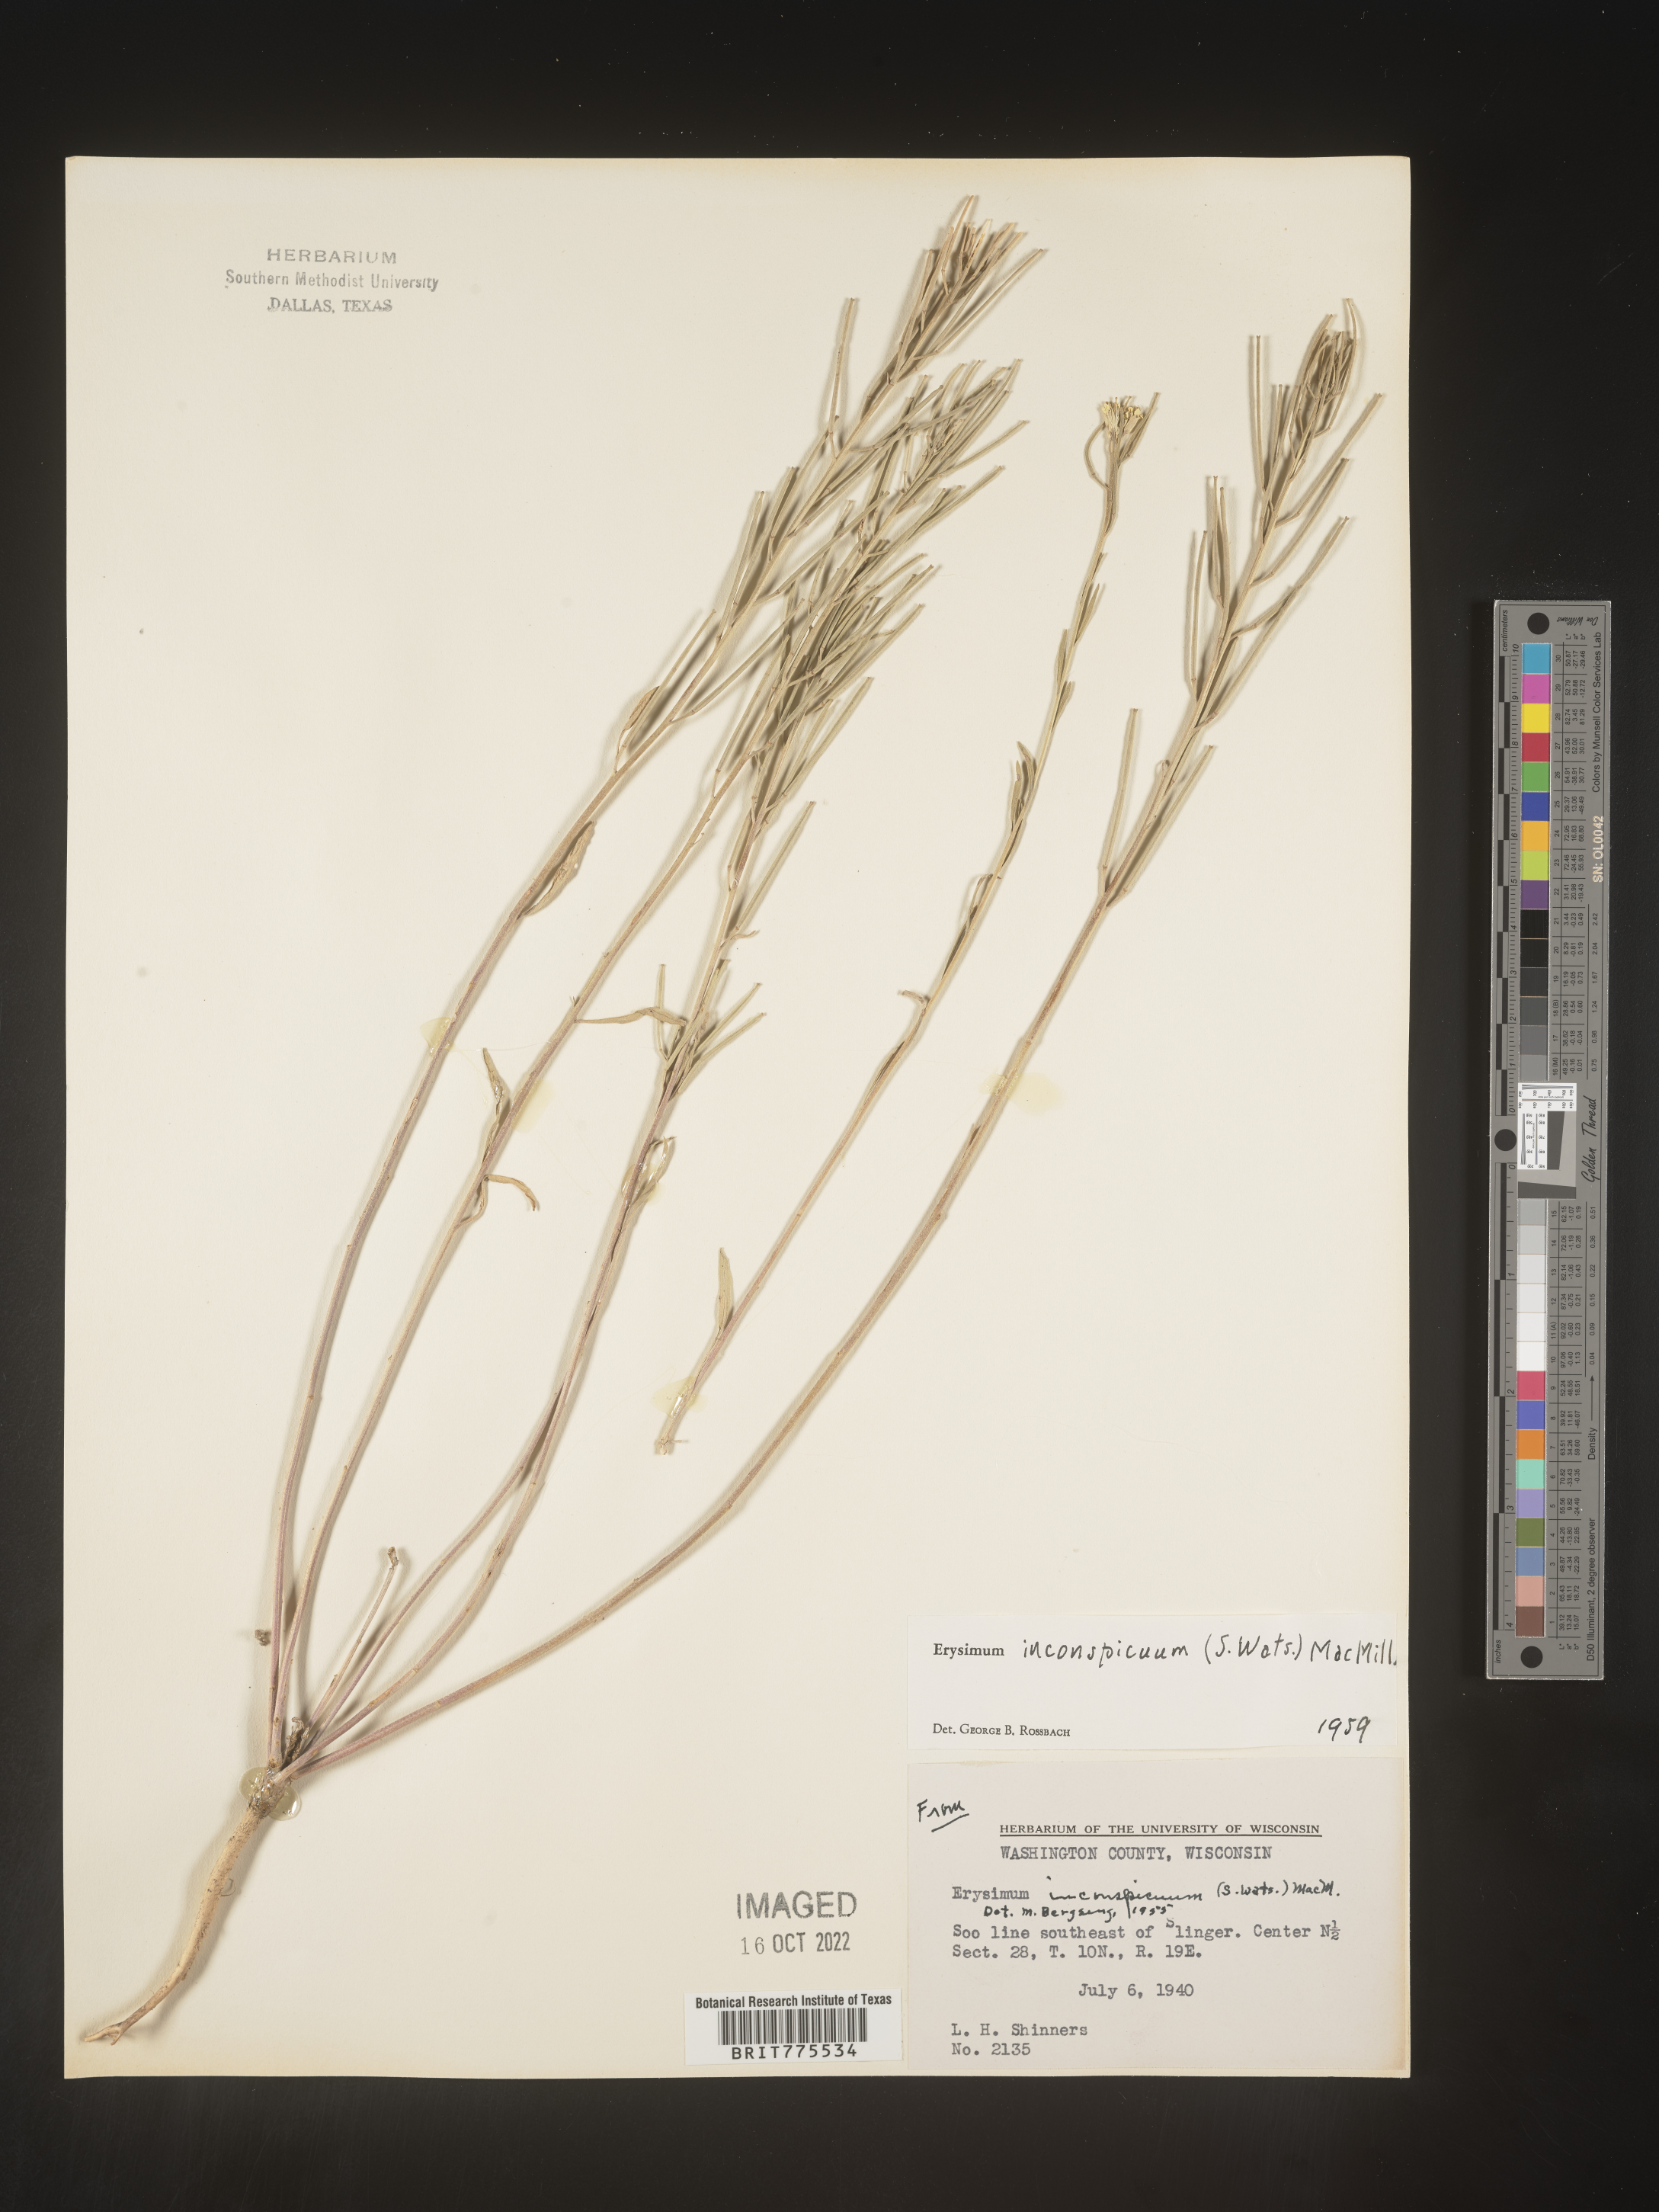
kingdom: Plantae
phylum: Tracheophyta
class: Magnoliopsida
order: Brassicales
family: Brassicaceae
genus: Erysimum
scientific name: Erysimum
